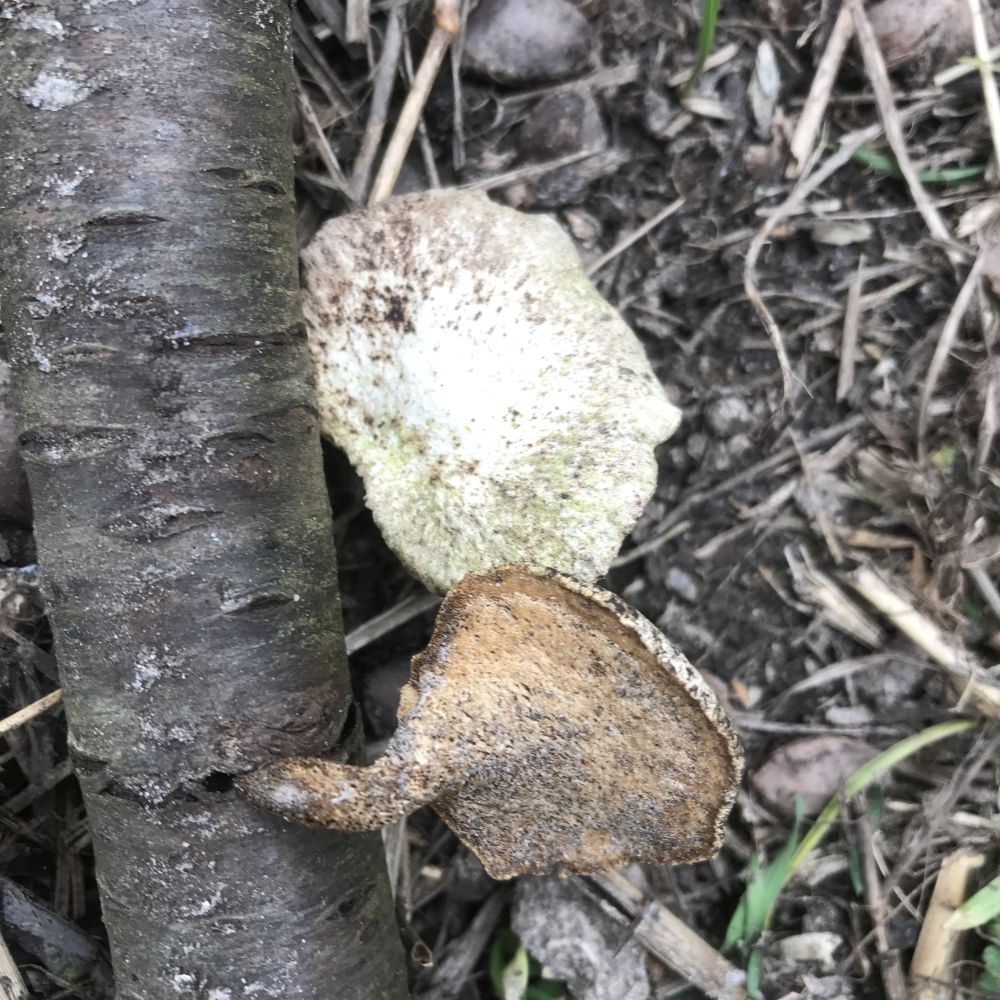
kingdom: Fungi
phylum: Basidiomycota
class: Agaricomycetes
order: Polyporales
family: Polyporaceae
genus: Cerioporus
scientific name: Cerioporus varius
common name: foranderlig stilkporesvamp
